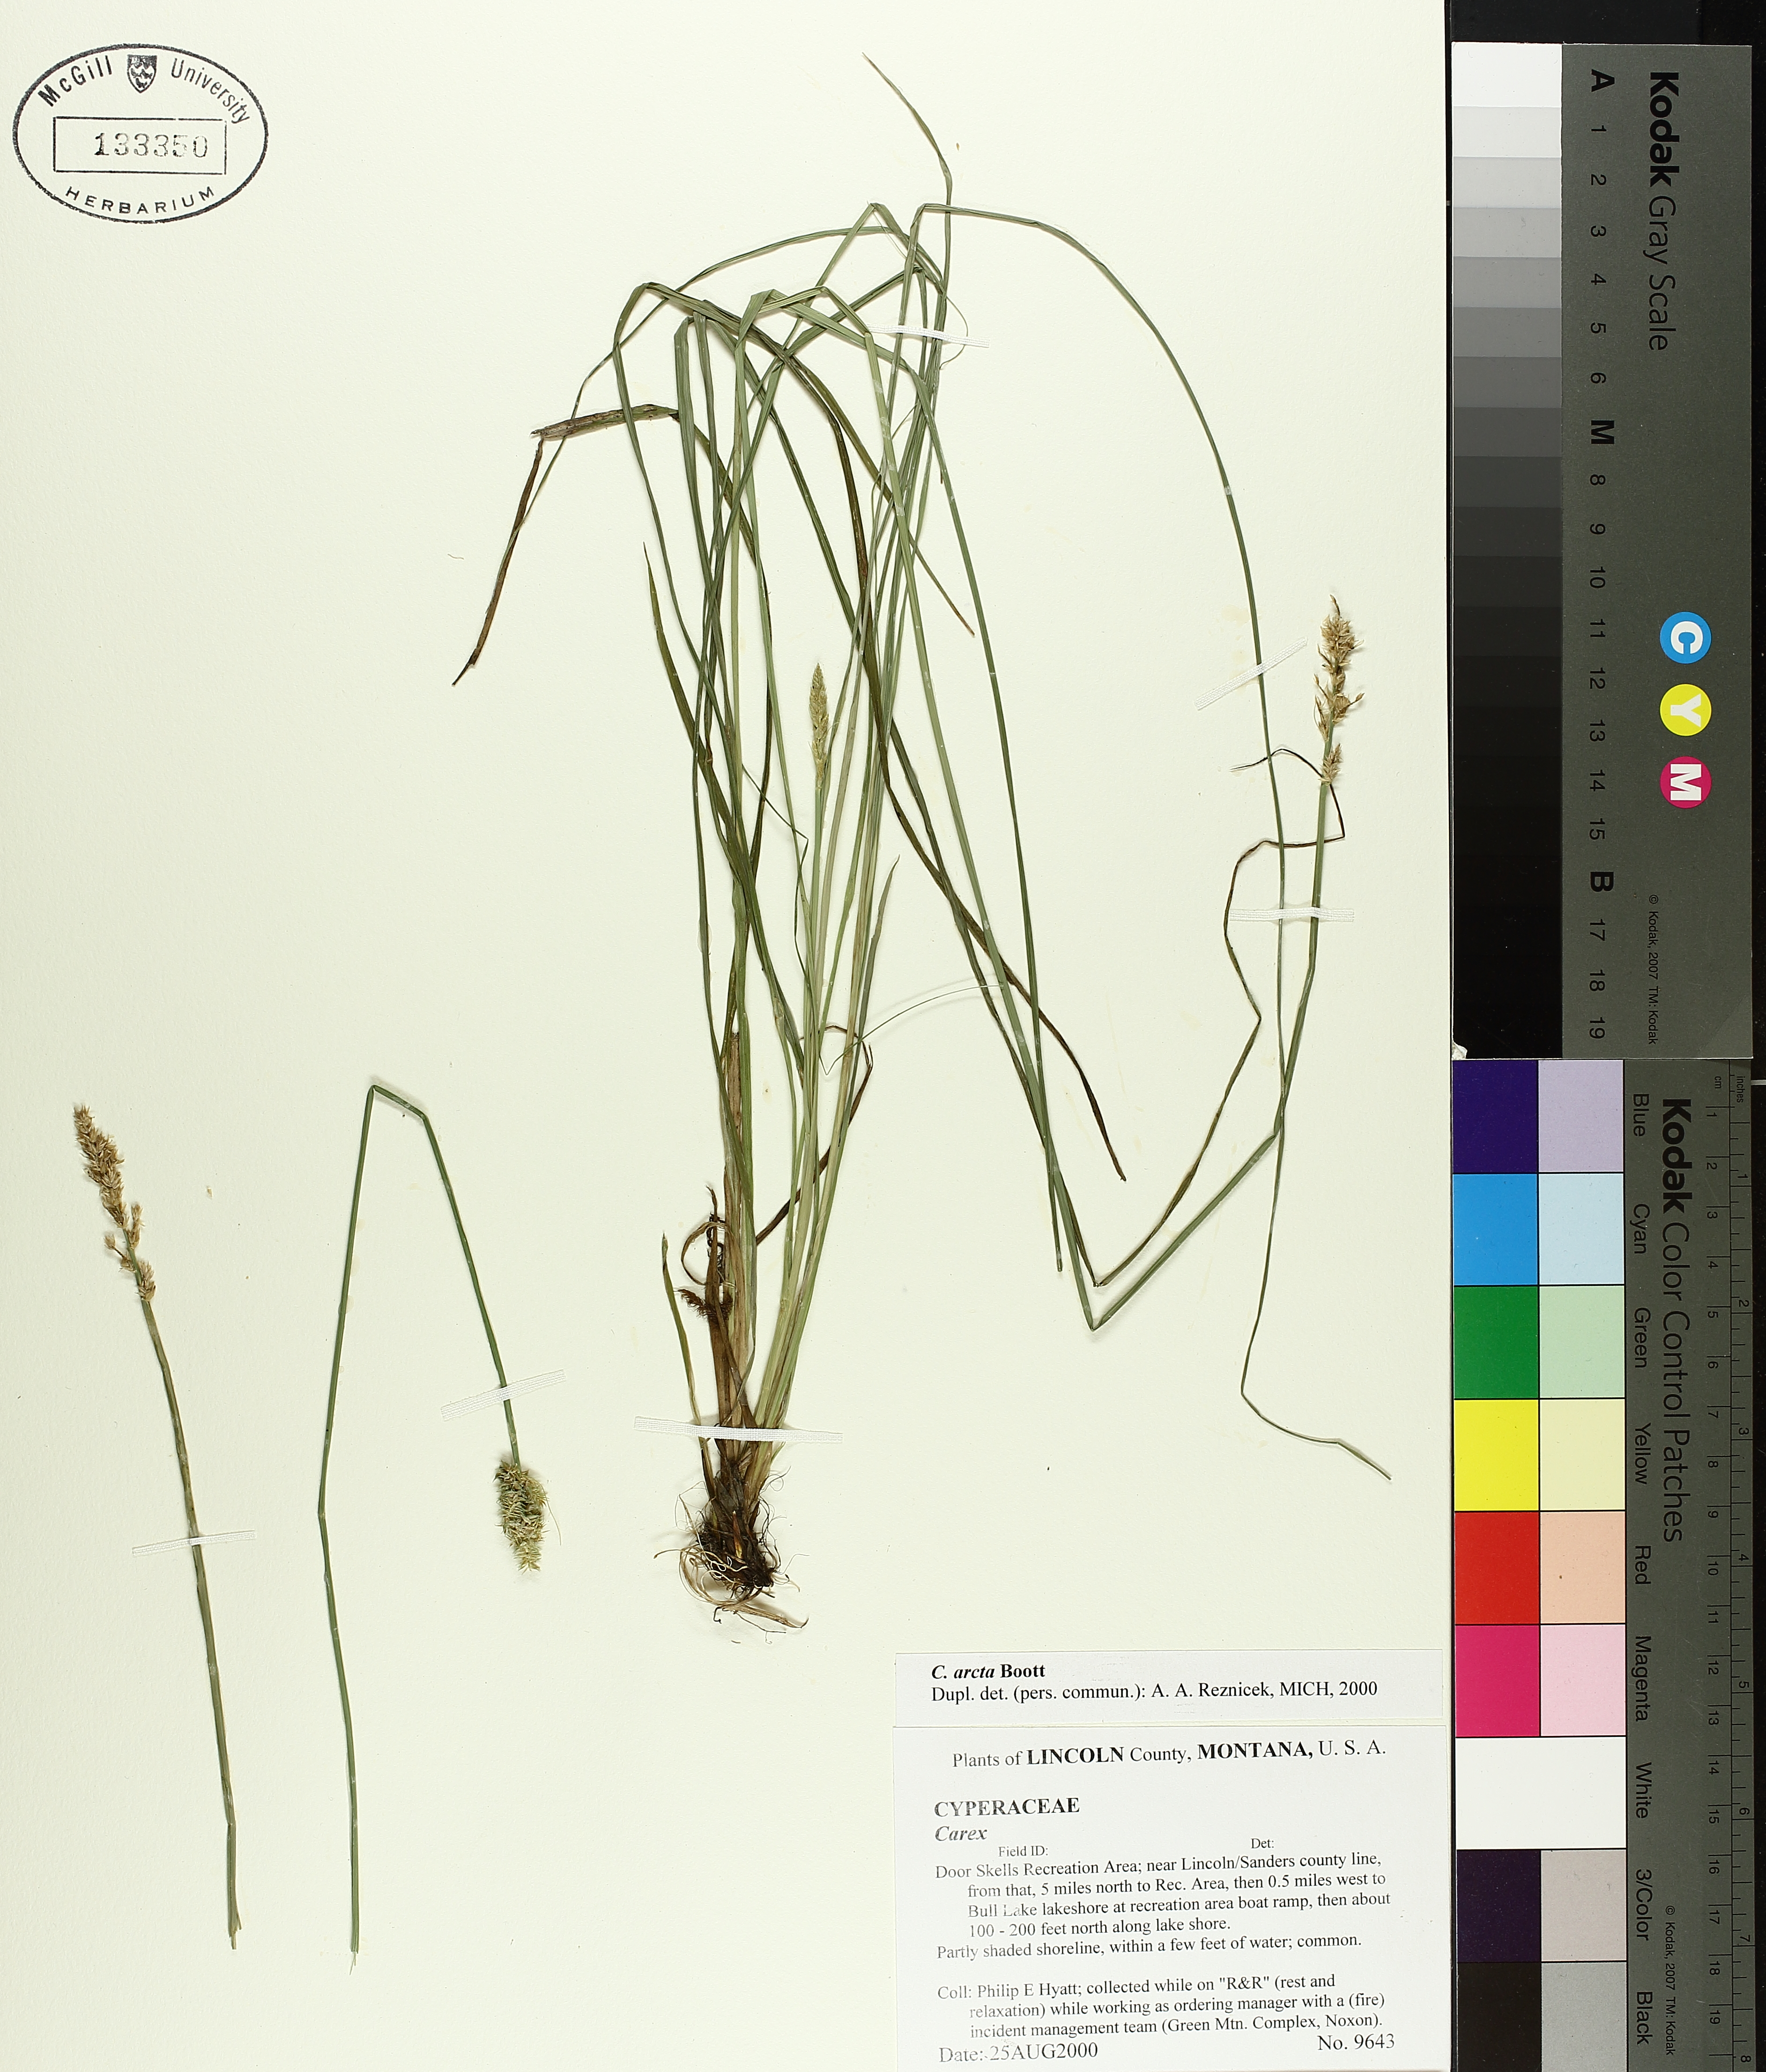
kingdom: Plantae
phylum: Tracheophyta
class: Liliopsida
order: Poales
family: Cyperaceae
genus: Carex
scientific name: Carex arcta
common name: Bear sedge
